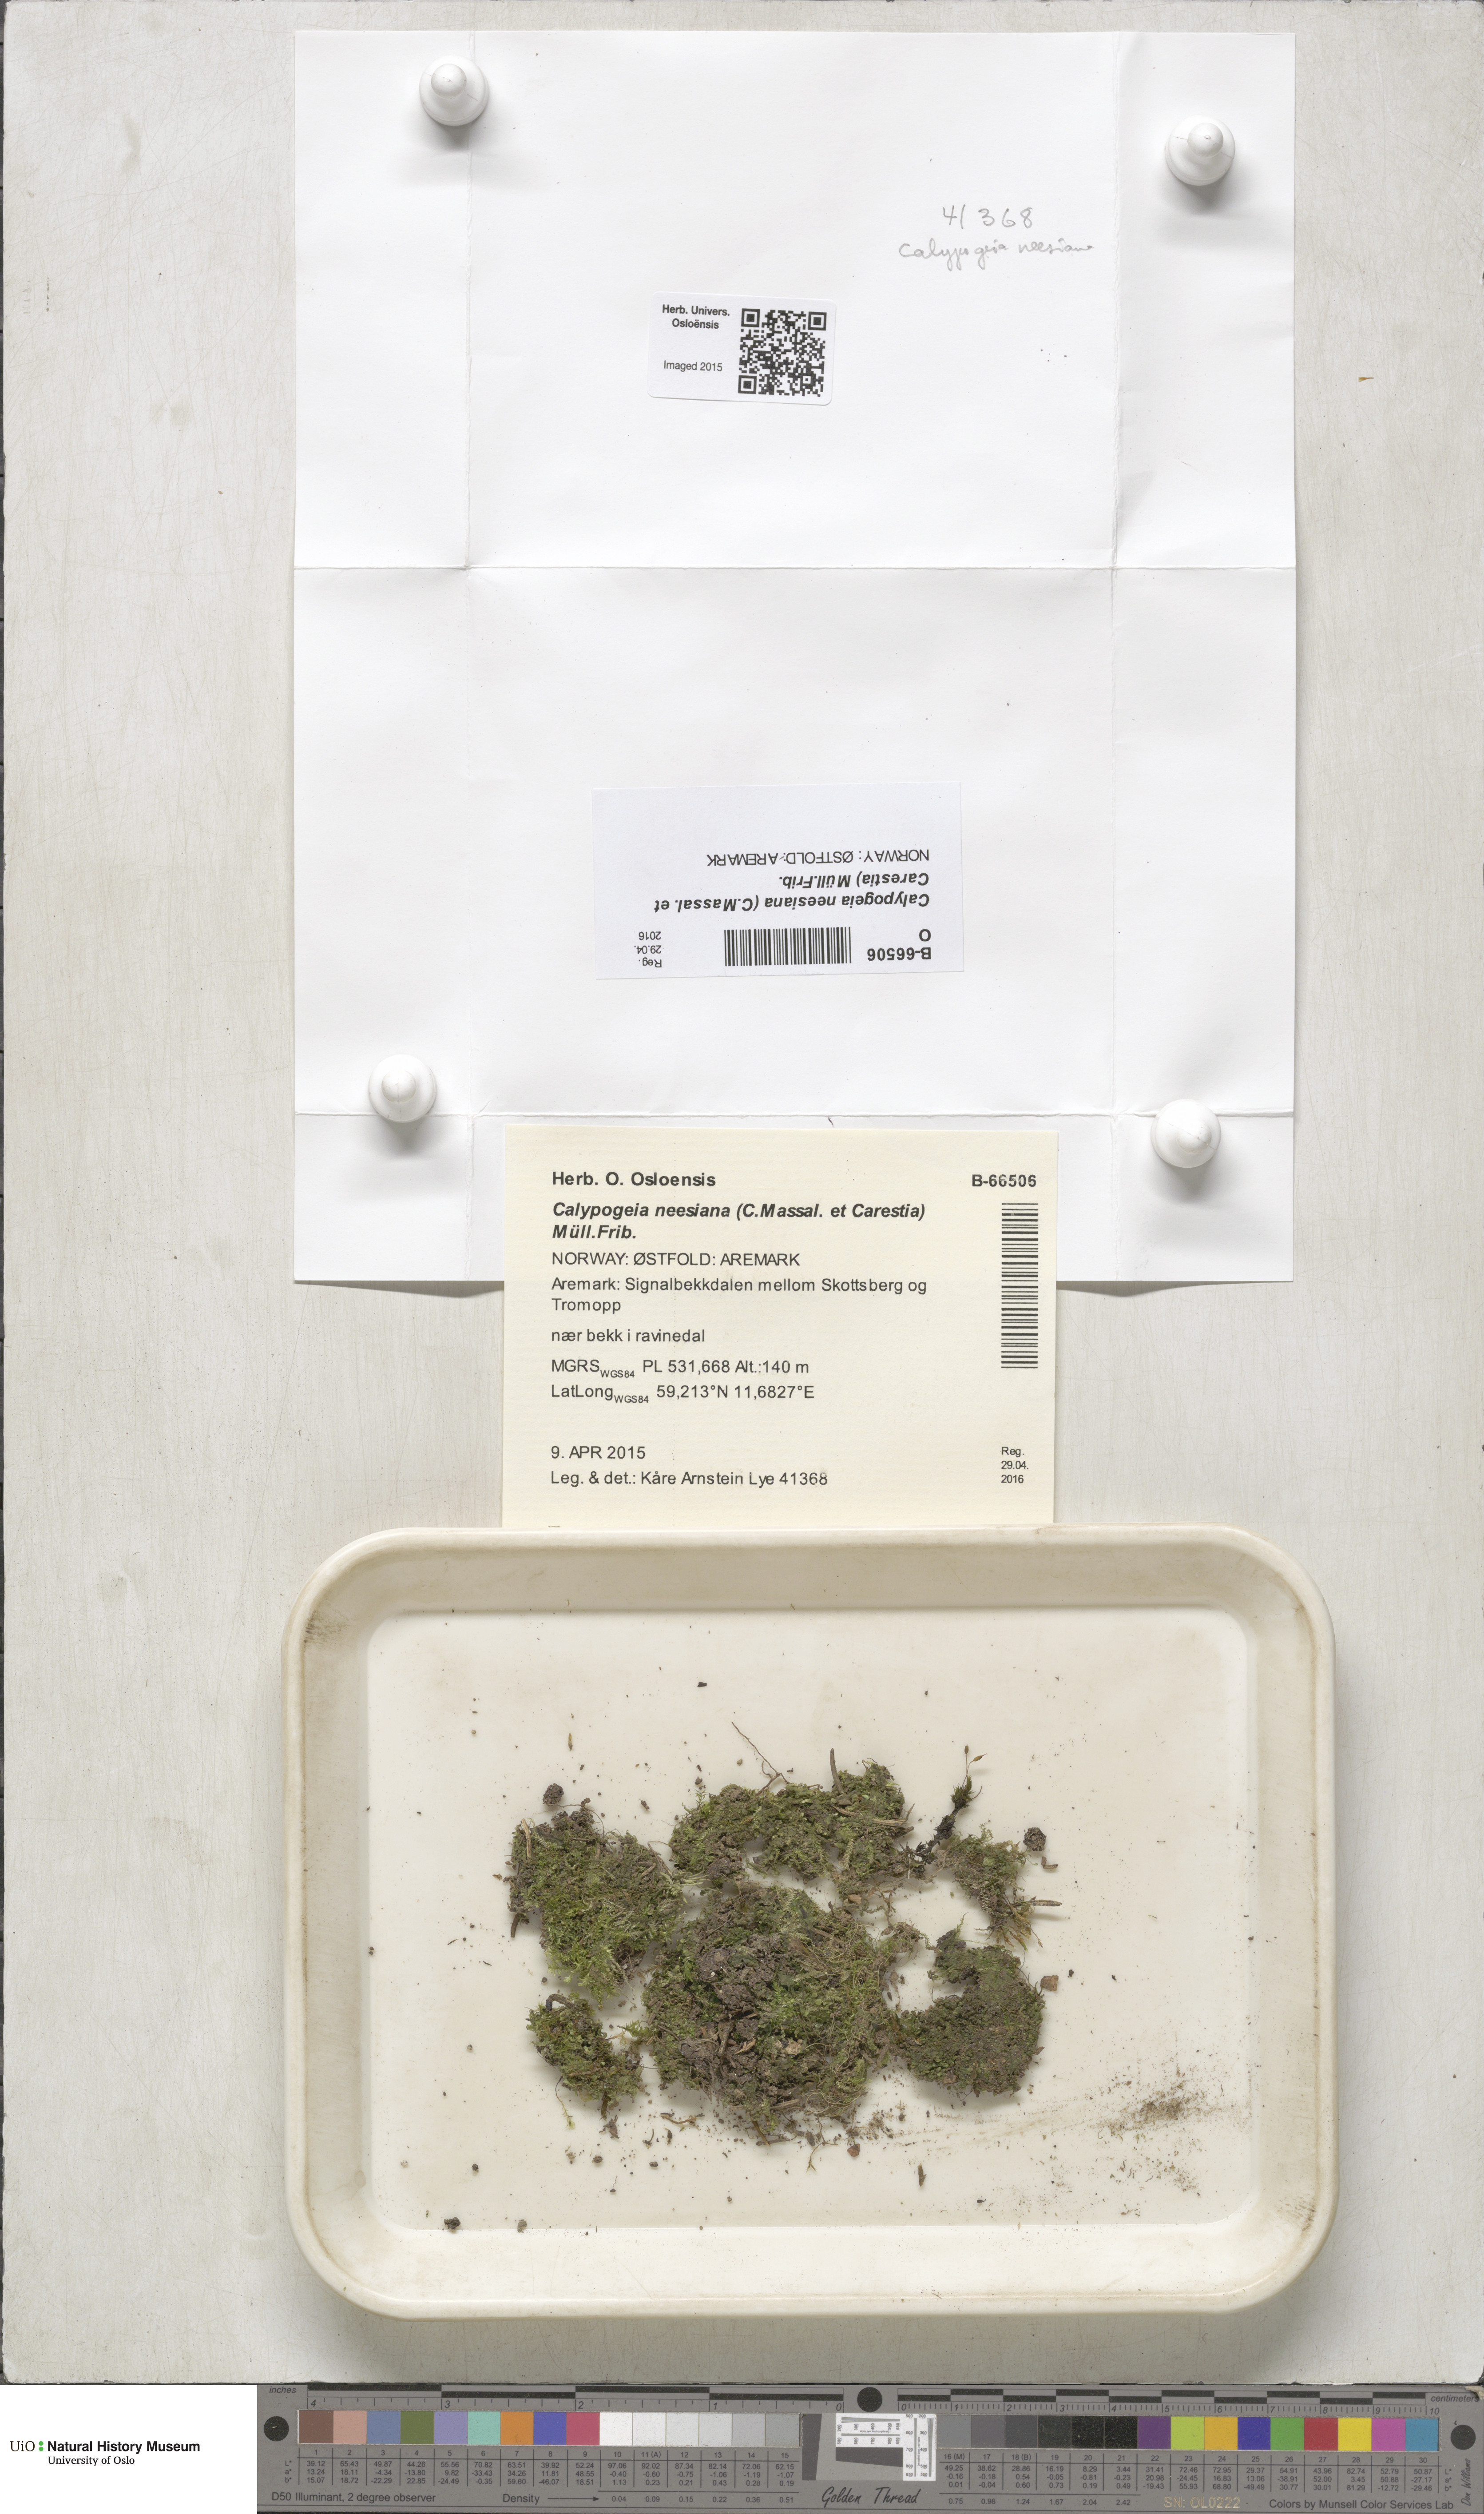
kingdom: Plantae
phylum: Marchantiophyta
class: Jungermanniopsida
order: Jungermanniales
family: Calypogeiaceae
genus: Calypogeia
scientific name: Calypogeia neesiana
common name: Nees  pouchwort
